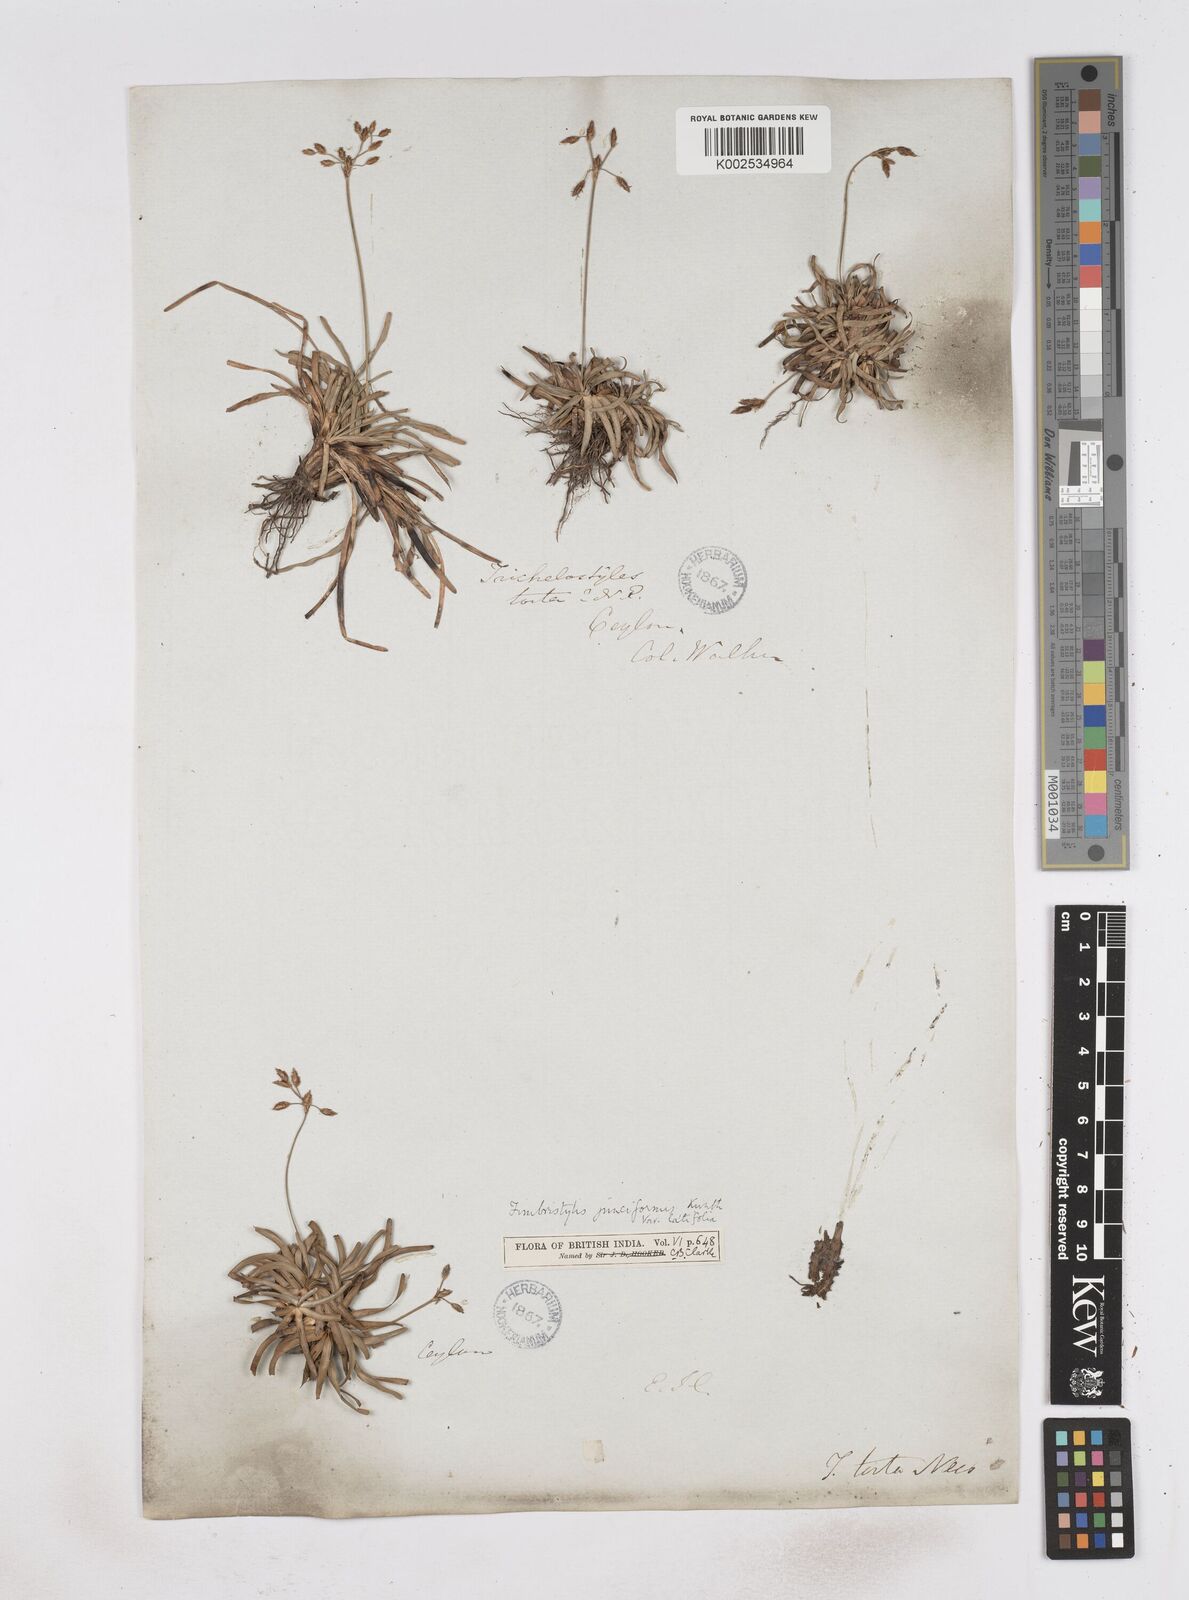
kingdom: Plantae
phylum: Tracheophyta
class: Liliopsida
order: Poales
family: Cyperaceae
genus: Fimbristylis
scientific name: Fimbristylis falcata
